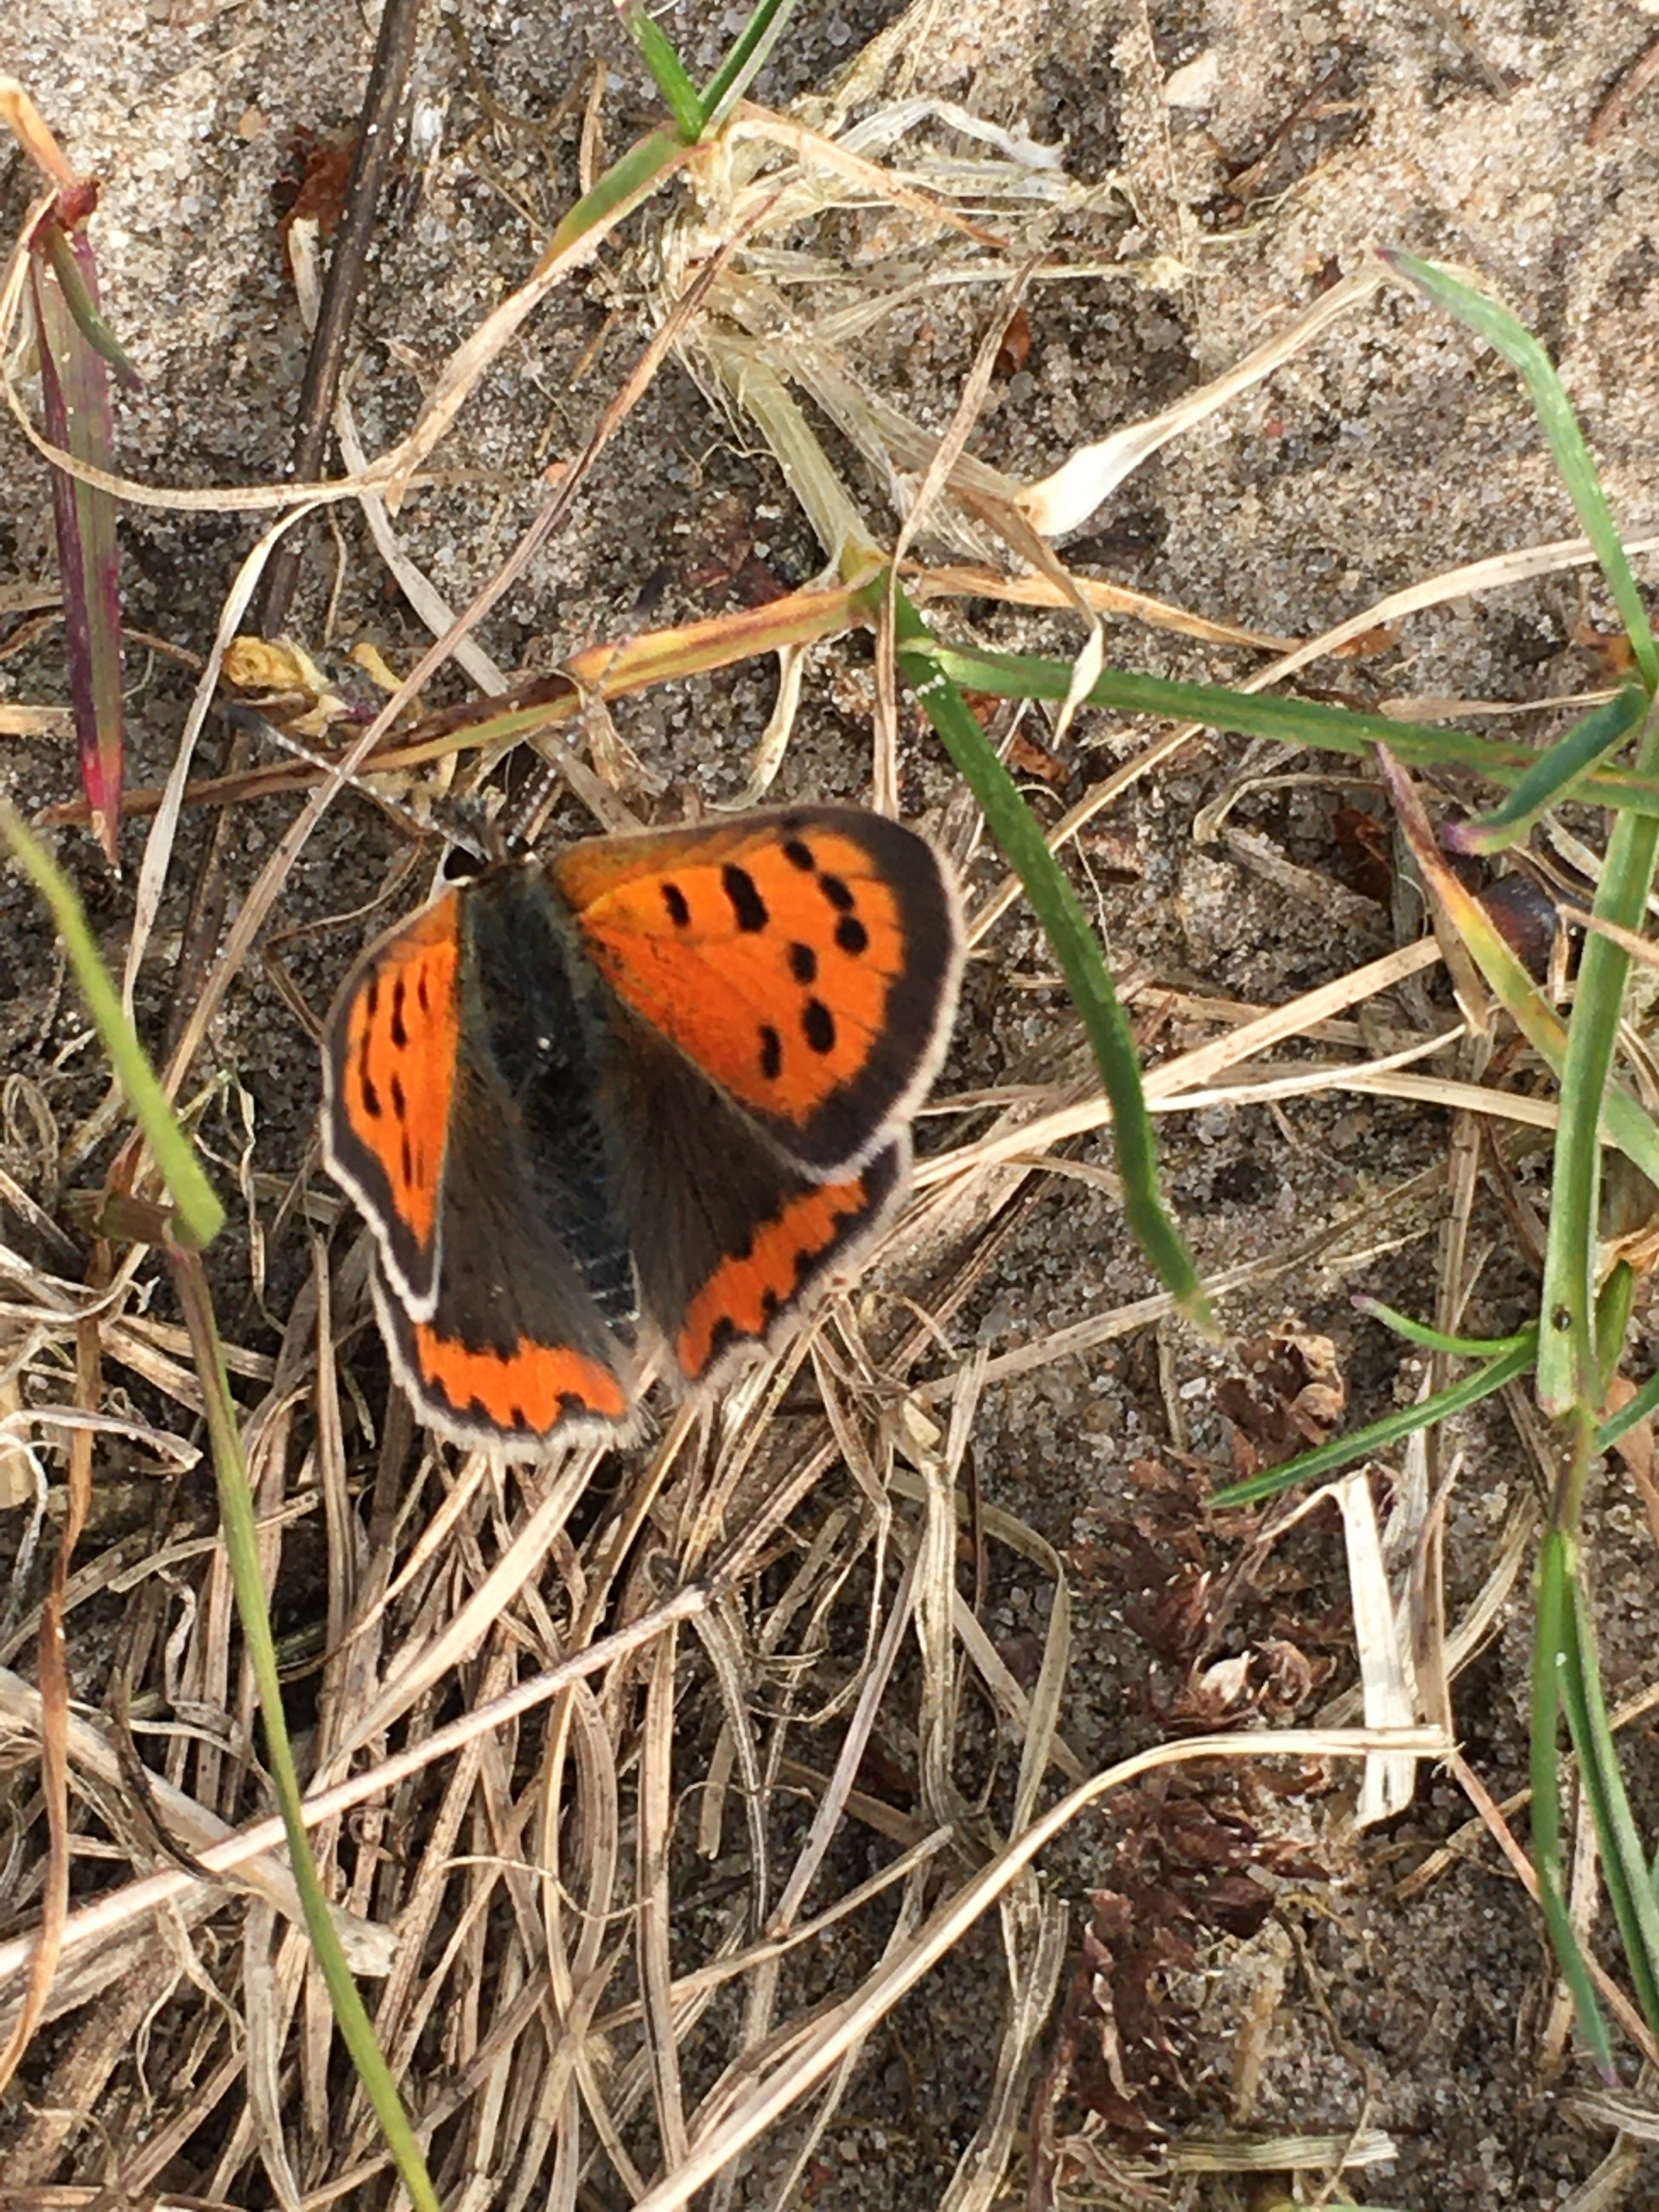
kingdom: Animalia
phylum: Arthropoda
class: Insecta
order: Lepidoptera
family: Lycaenidae
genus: Lycaena
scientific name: Lycaena phlaeas
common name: Lille ildfugl
